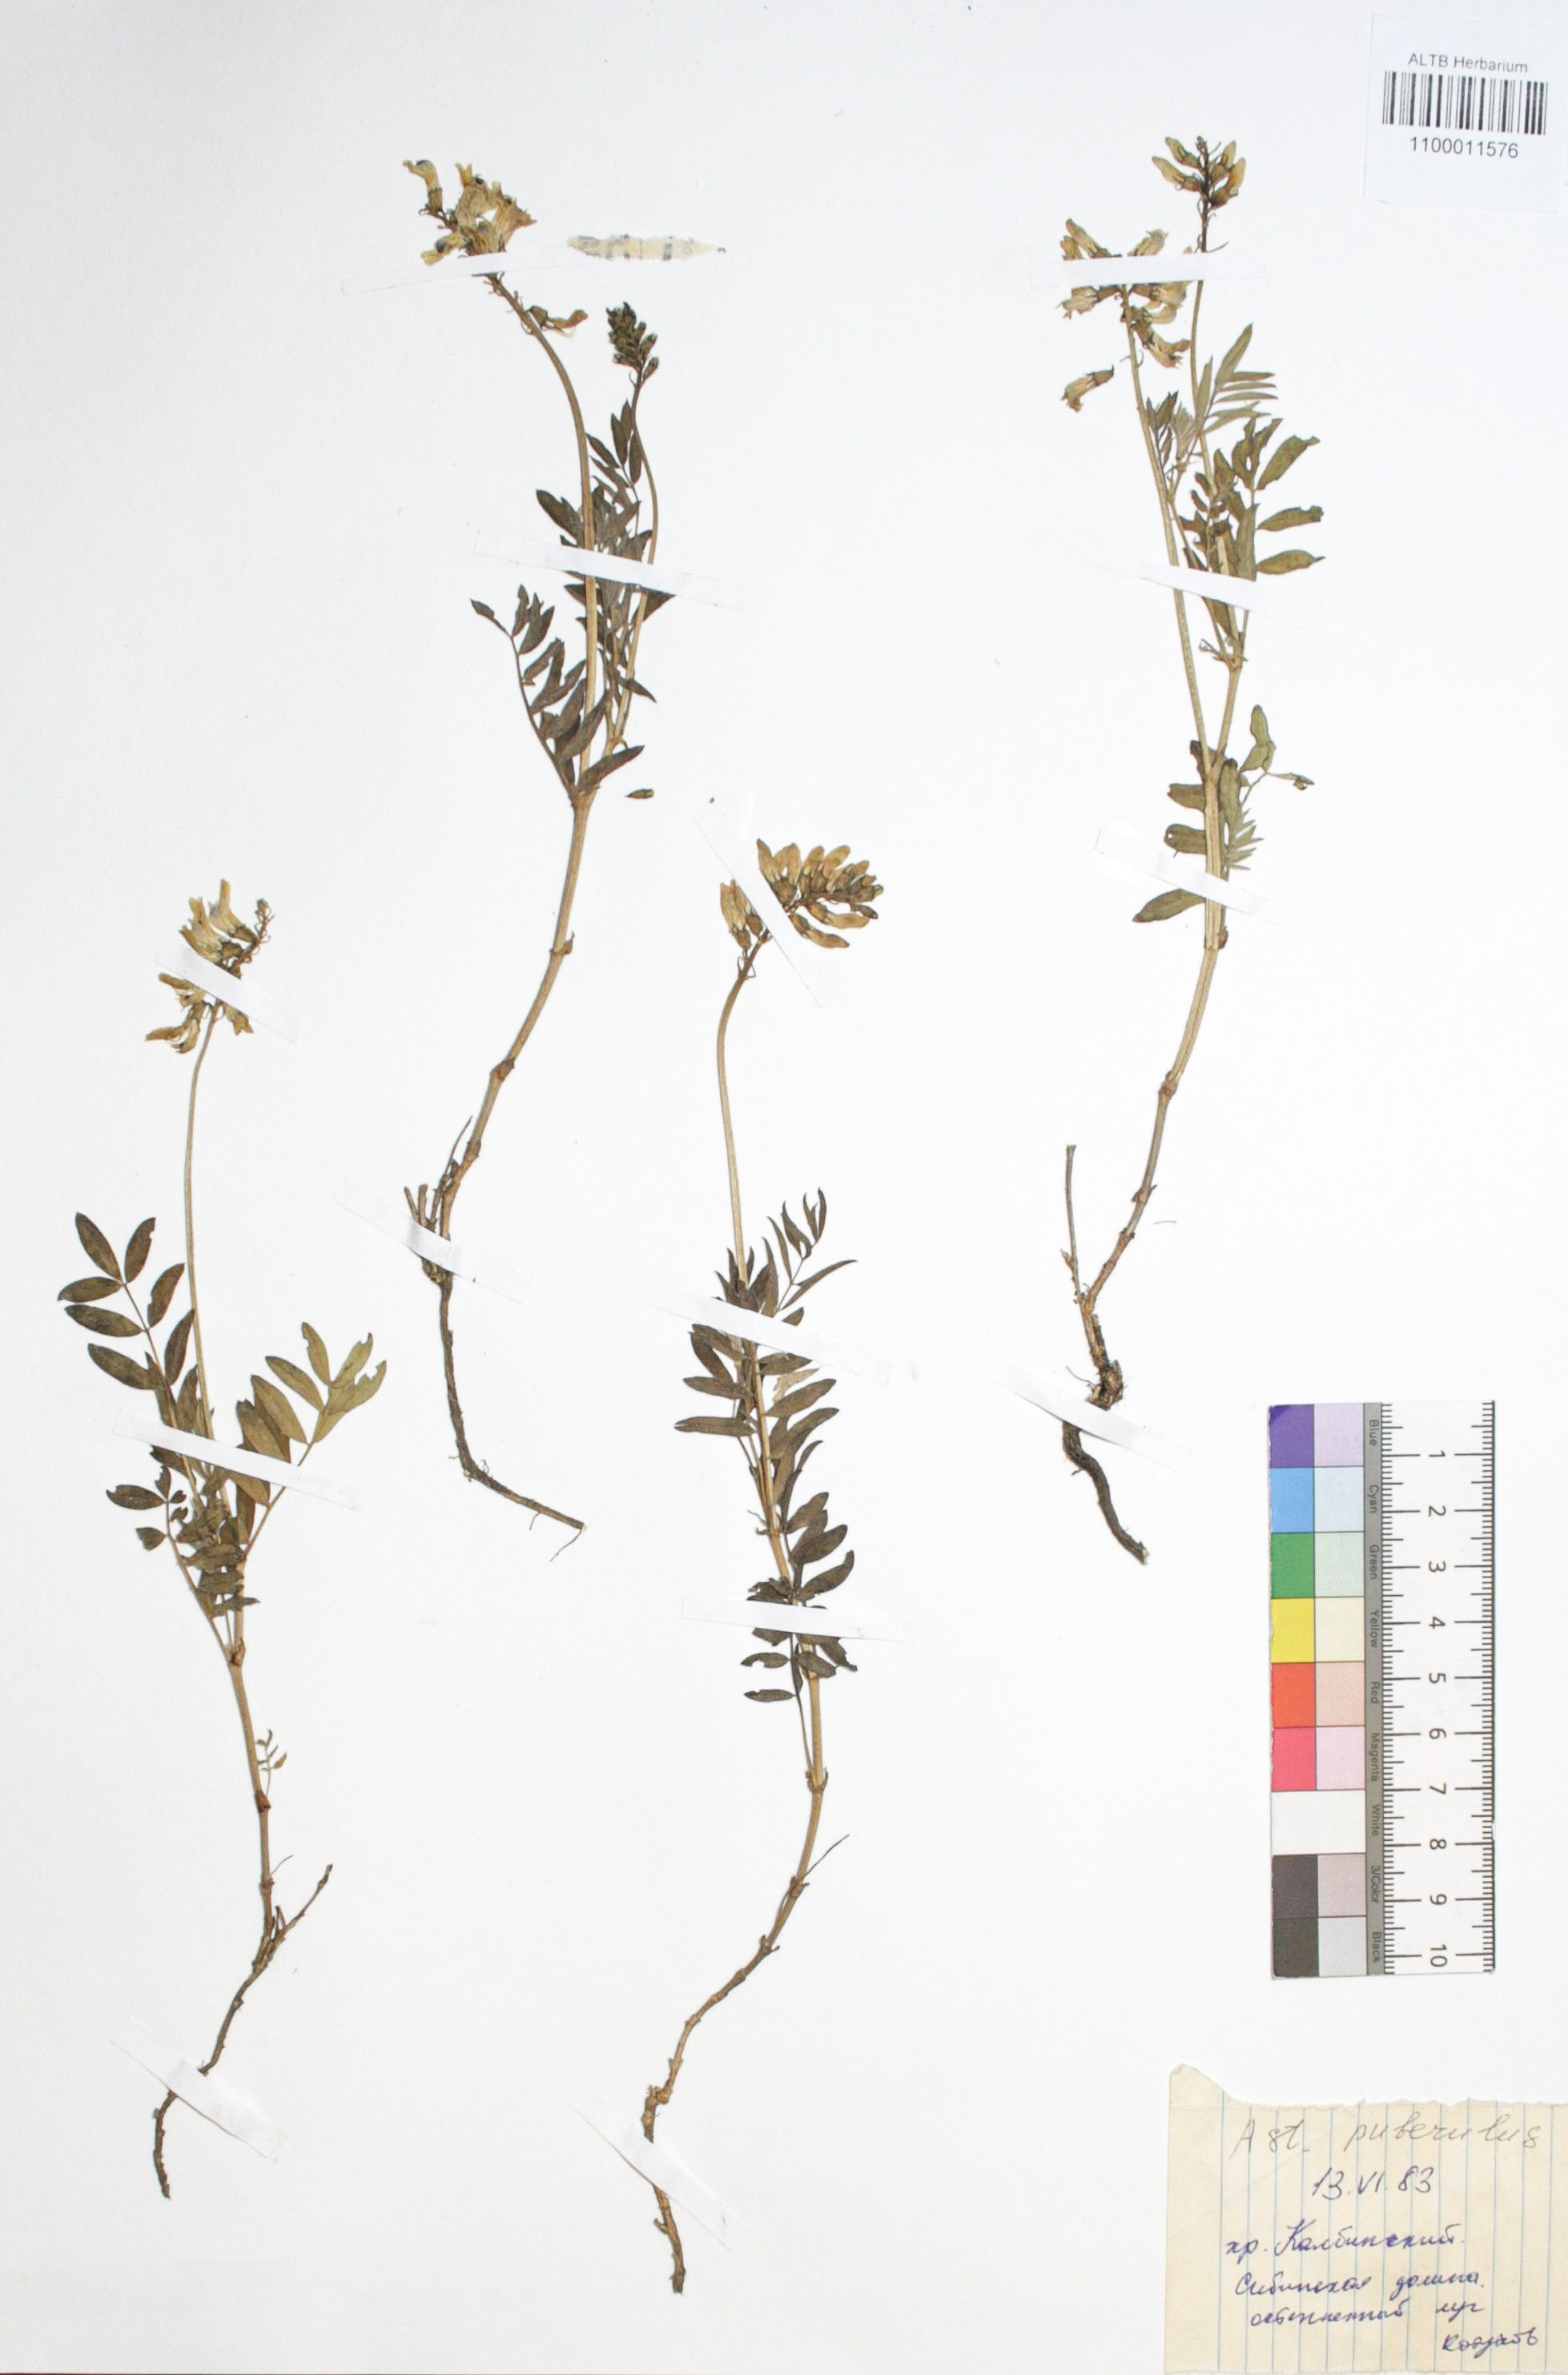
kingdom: Plantae
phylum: Tracheophyta
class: Magnoliopsida
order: Fabales
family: Fabaceae
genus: Astragalus
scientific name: Astragalus puberulus
